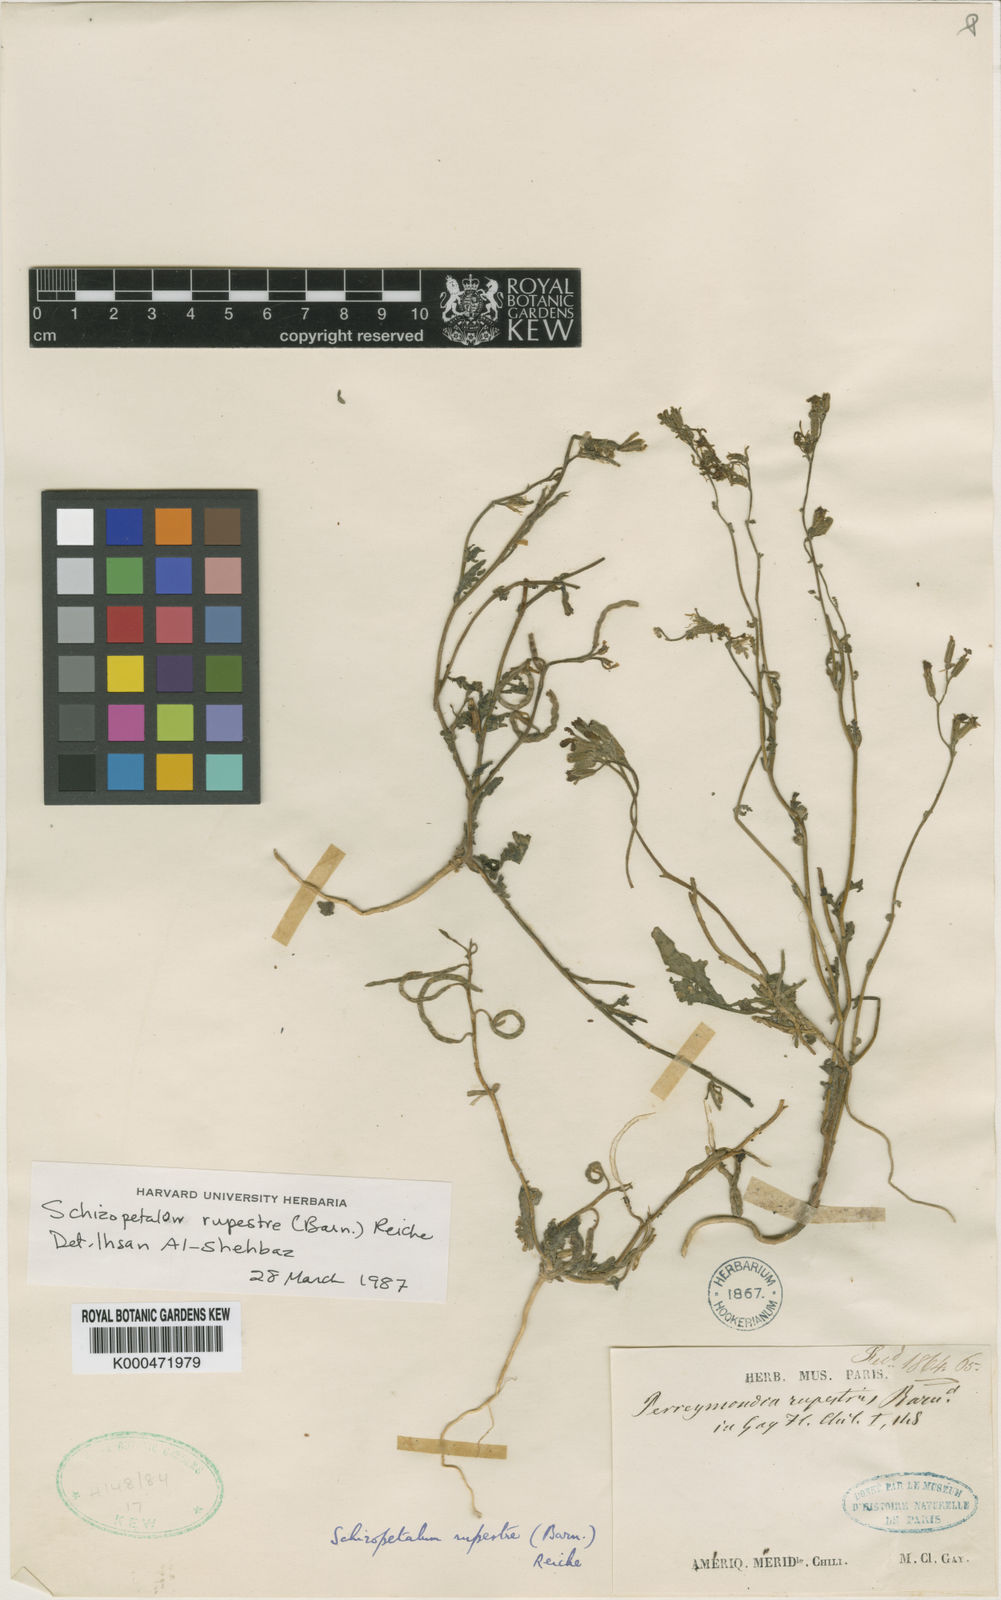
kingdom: Plantae
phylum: Tracheophyta
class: Magnoliopsida
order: Brassicales
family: Brassicaceae
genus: Schizopetalon
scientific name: Schizopetalon
